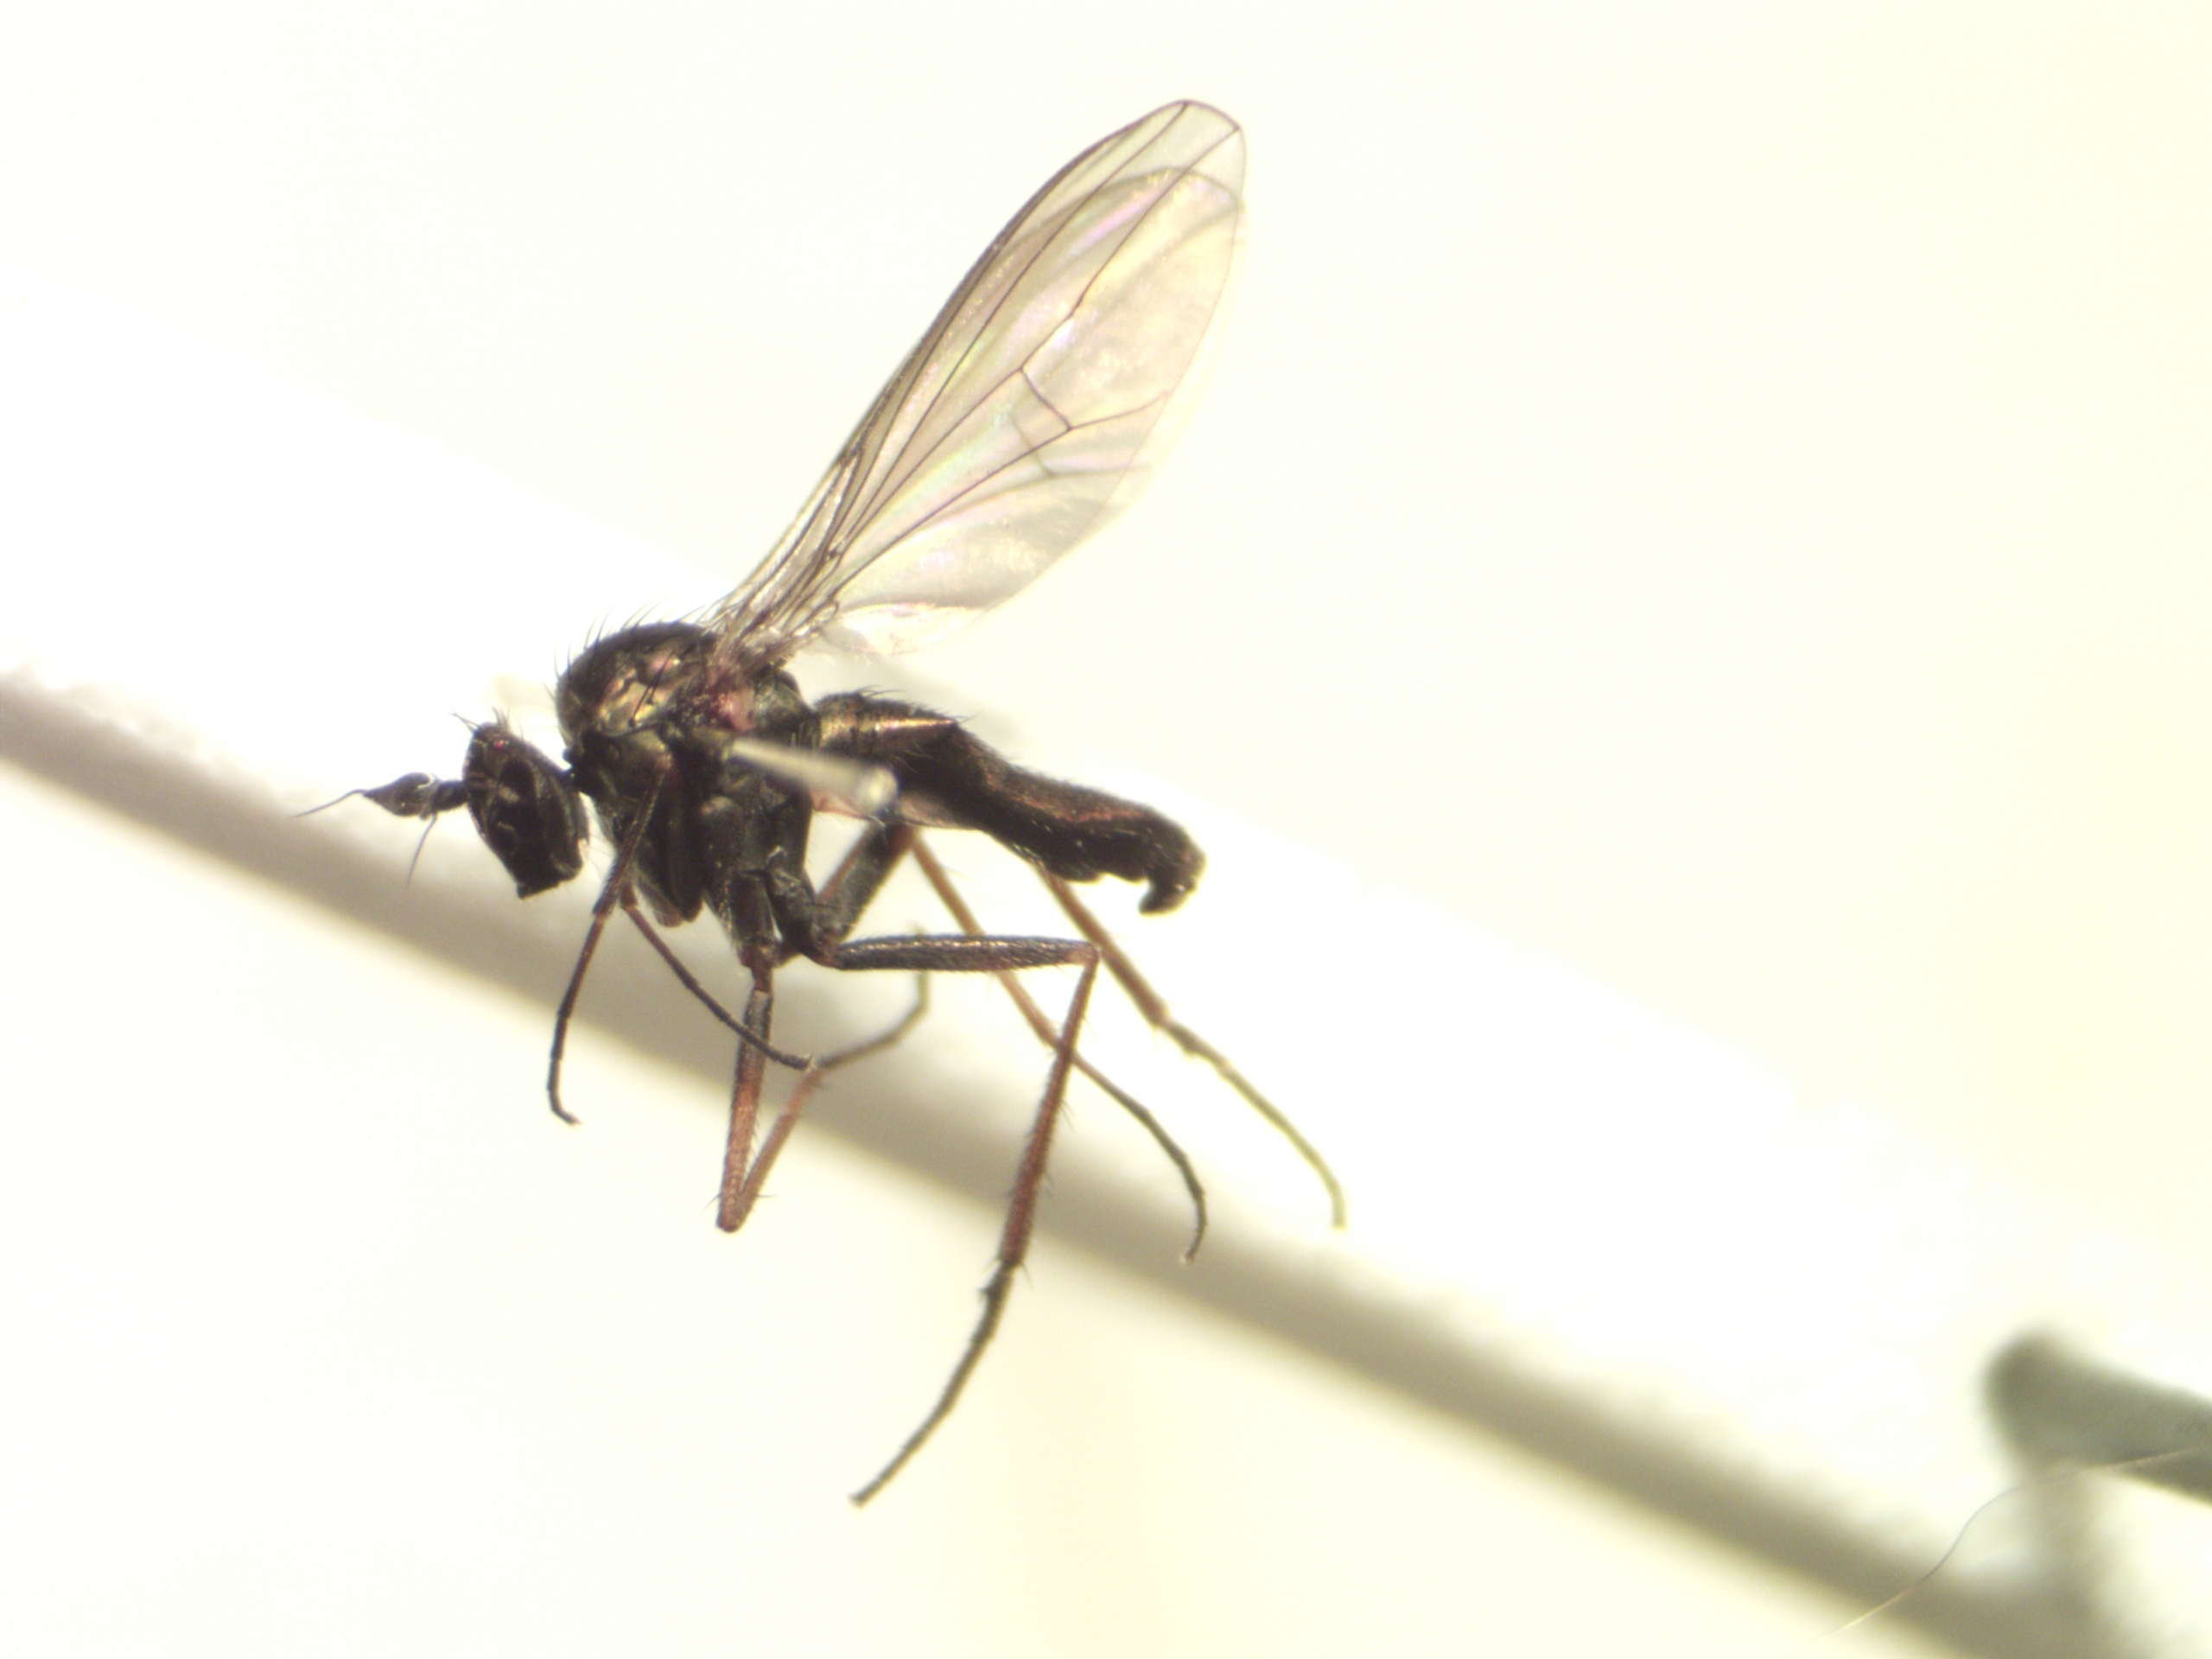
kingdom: Animalia
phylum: Arthropoda
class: Insecta
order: Diptera
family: Dolichopodidae
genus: Syntormon
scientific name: Syntormon denticulatum
